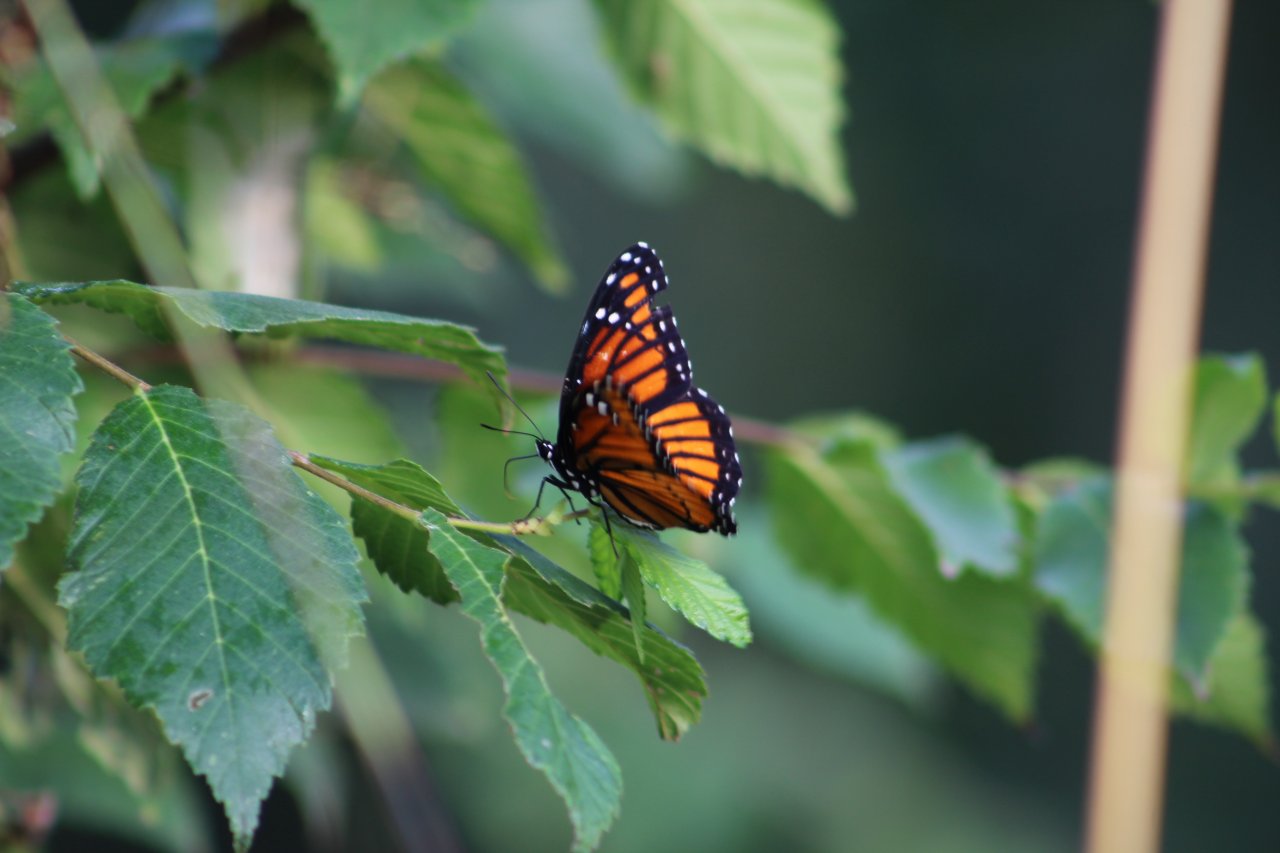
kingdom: Animalia
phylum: Arthropoda
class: Insecta
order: Lepidoptera
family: Nymphalidae
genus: Limenitis
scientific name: Limenitis archippus
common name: Viceroy
